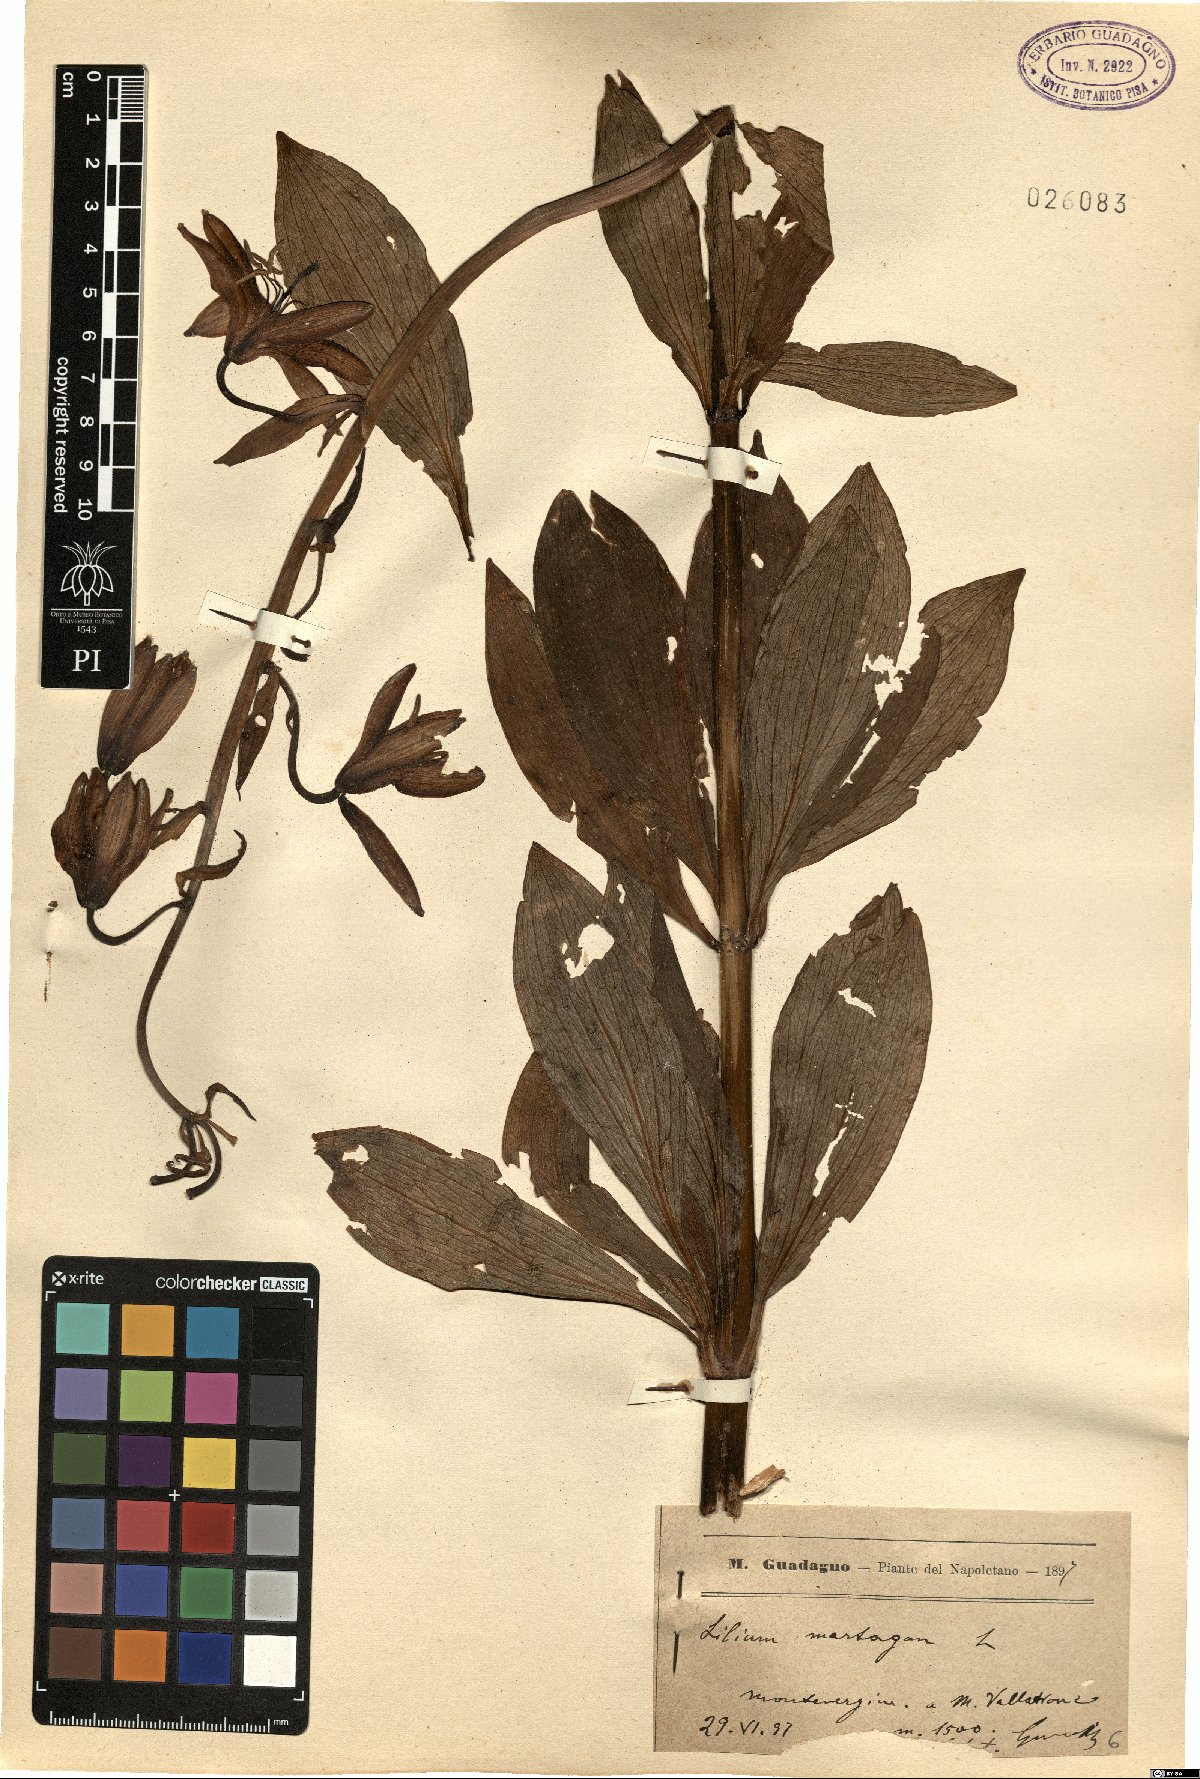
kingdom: Plantae
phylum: Tracheophyta
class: Liliopsida
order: Liliales
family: Liliaceae
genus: Lilium
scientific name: Lilium martagon
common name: Martagon lily
